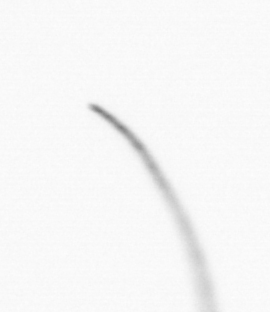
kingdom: Chromista
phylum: Ochrophyta
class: Bacillariophyceae
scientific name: Bacillariophyceae
